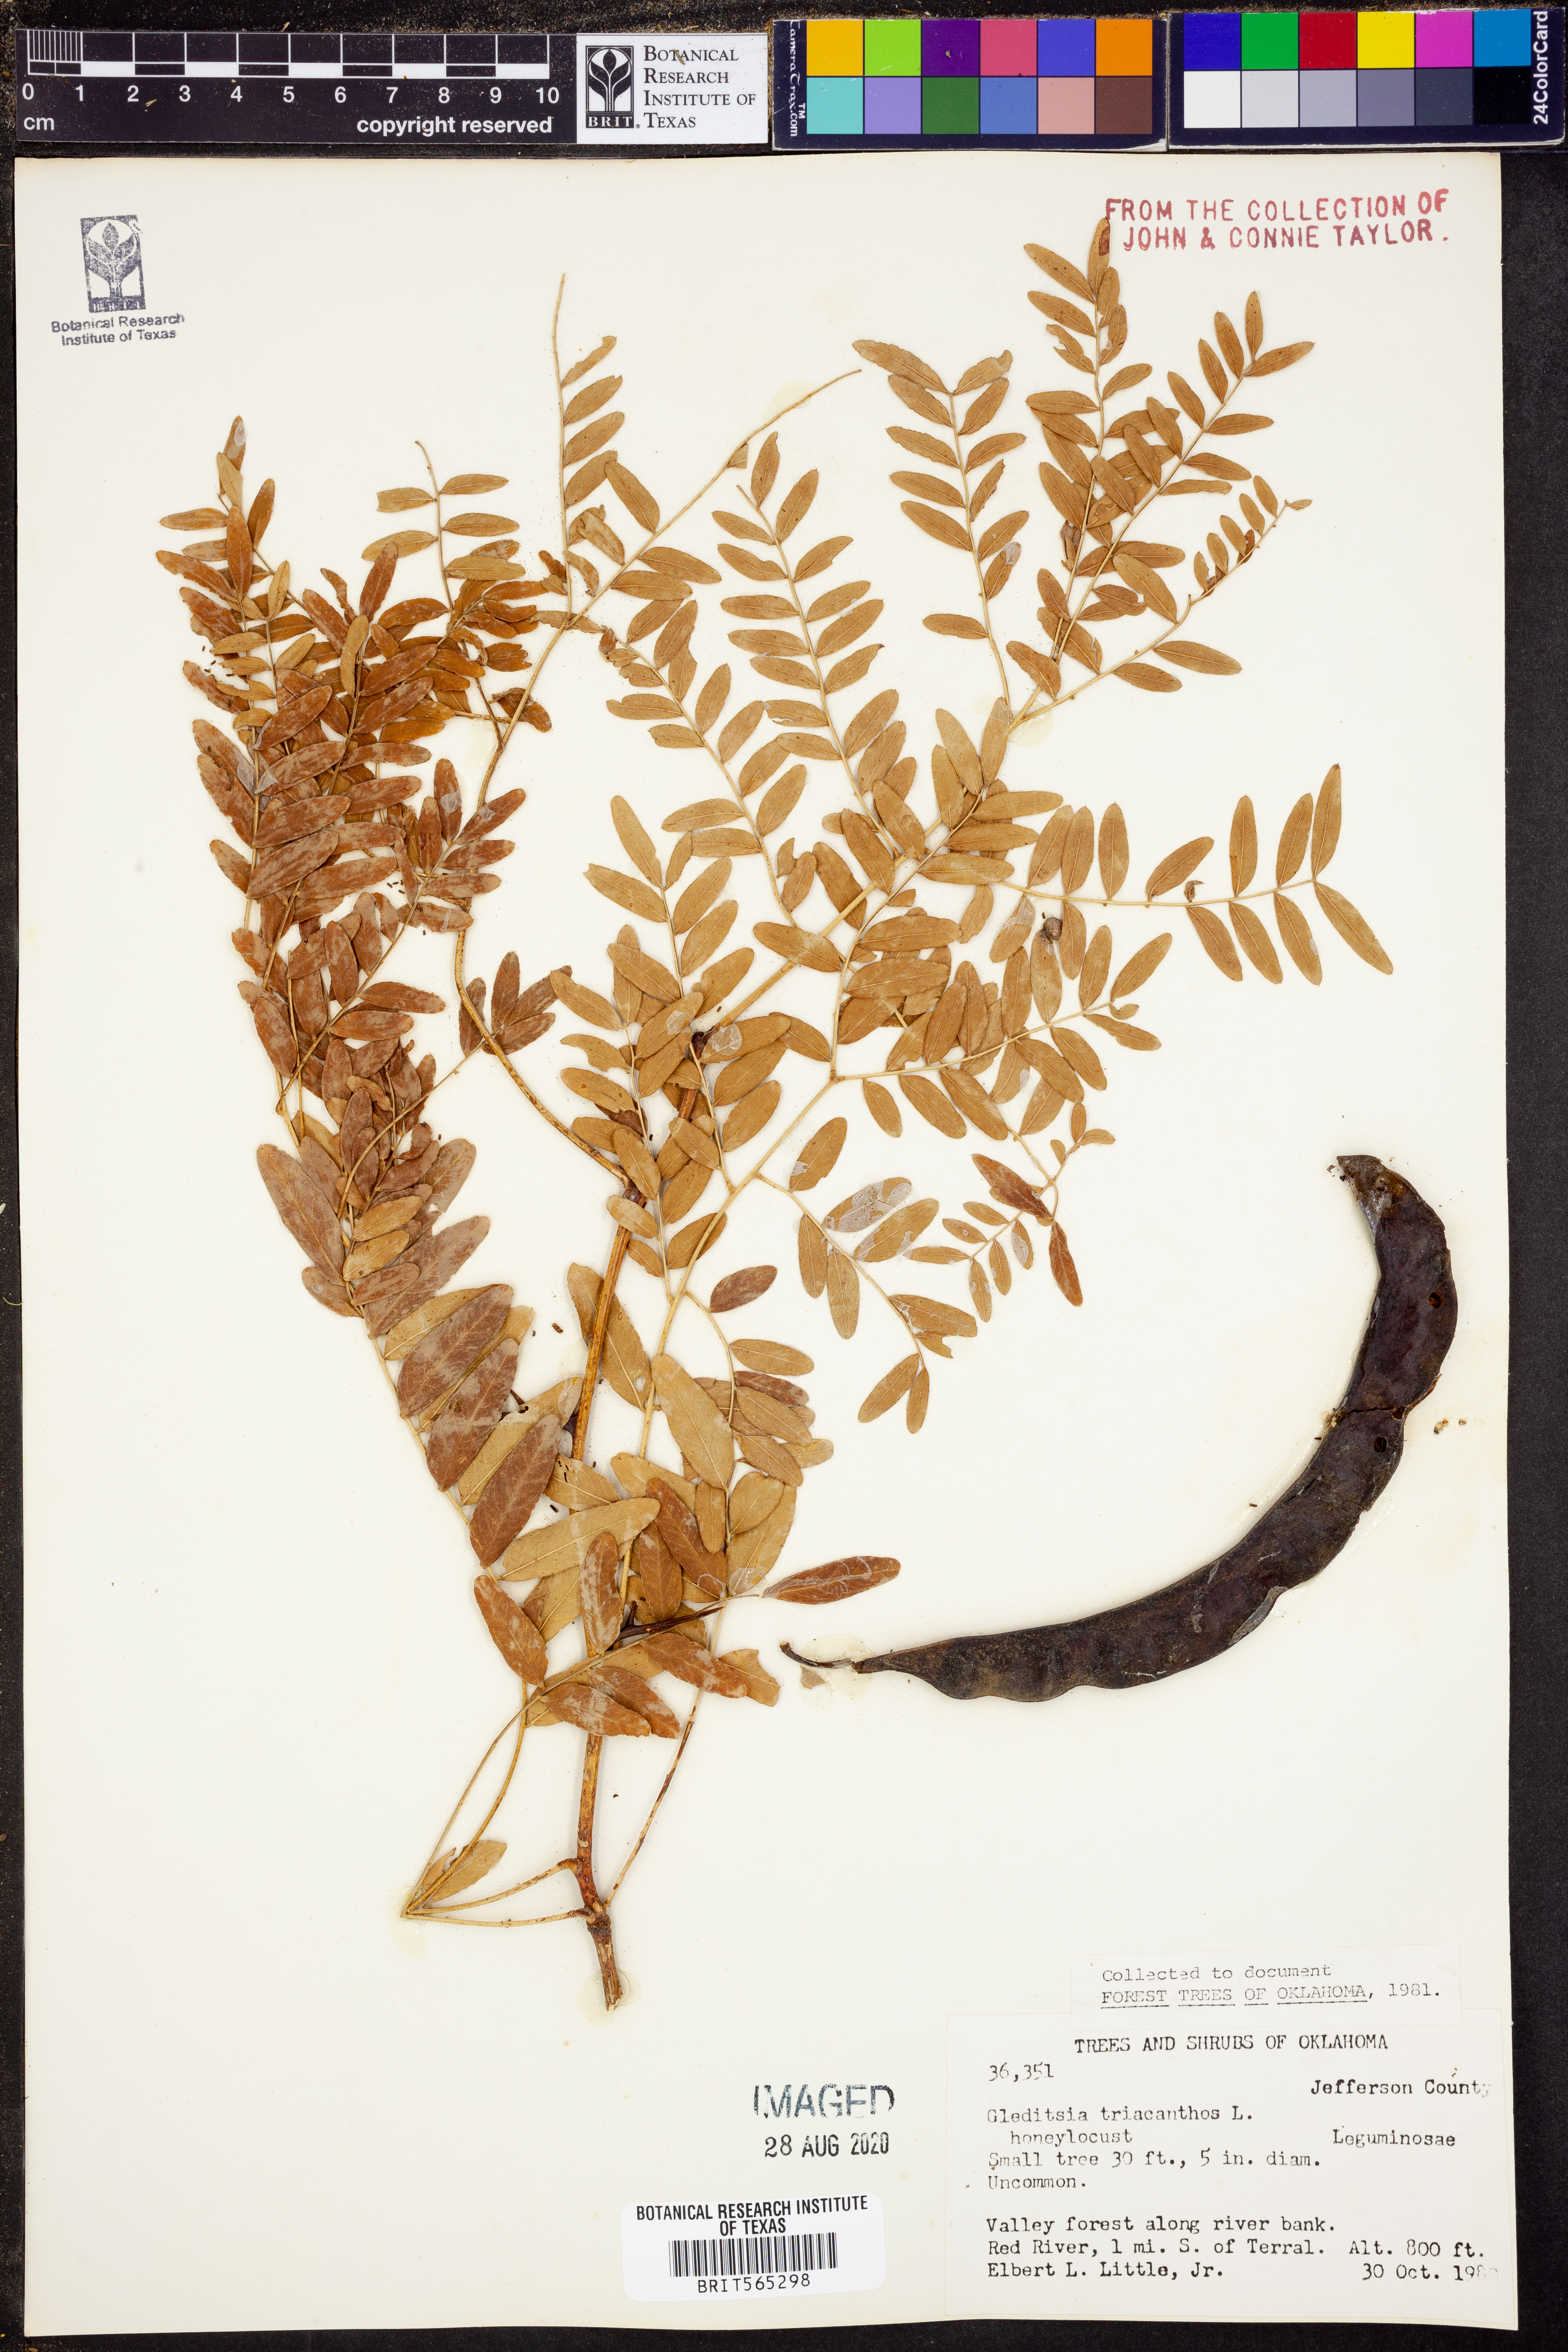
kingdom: Plantae
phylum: Tracheophyta
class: Magnoliopsida
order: Fabales
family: Fabaceae
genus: Gleditsia
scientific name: Gleditsia triacanthos
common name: Common honeylocust
